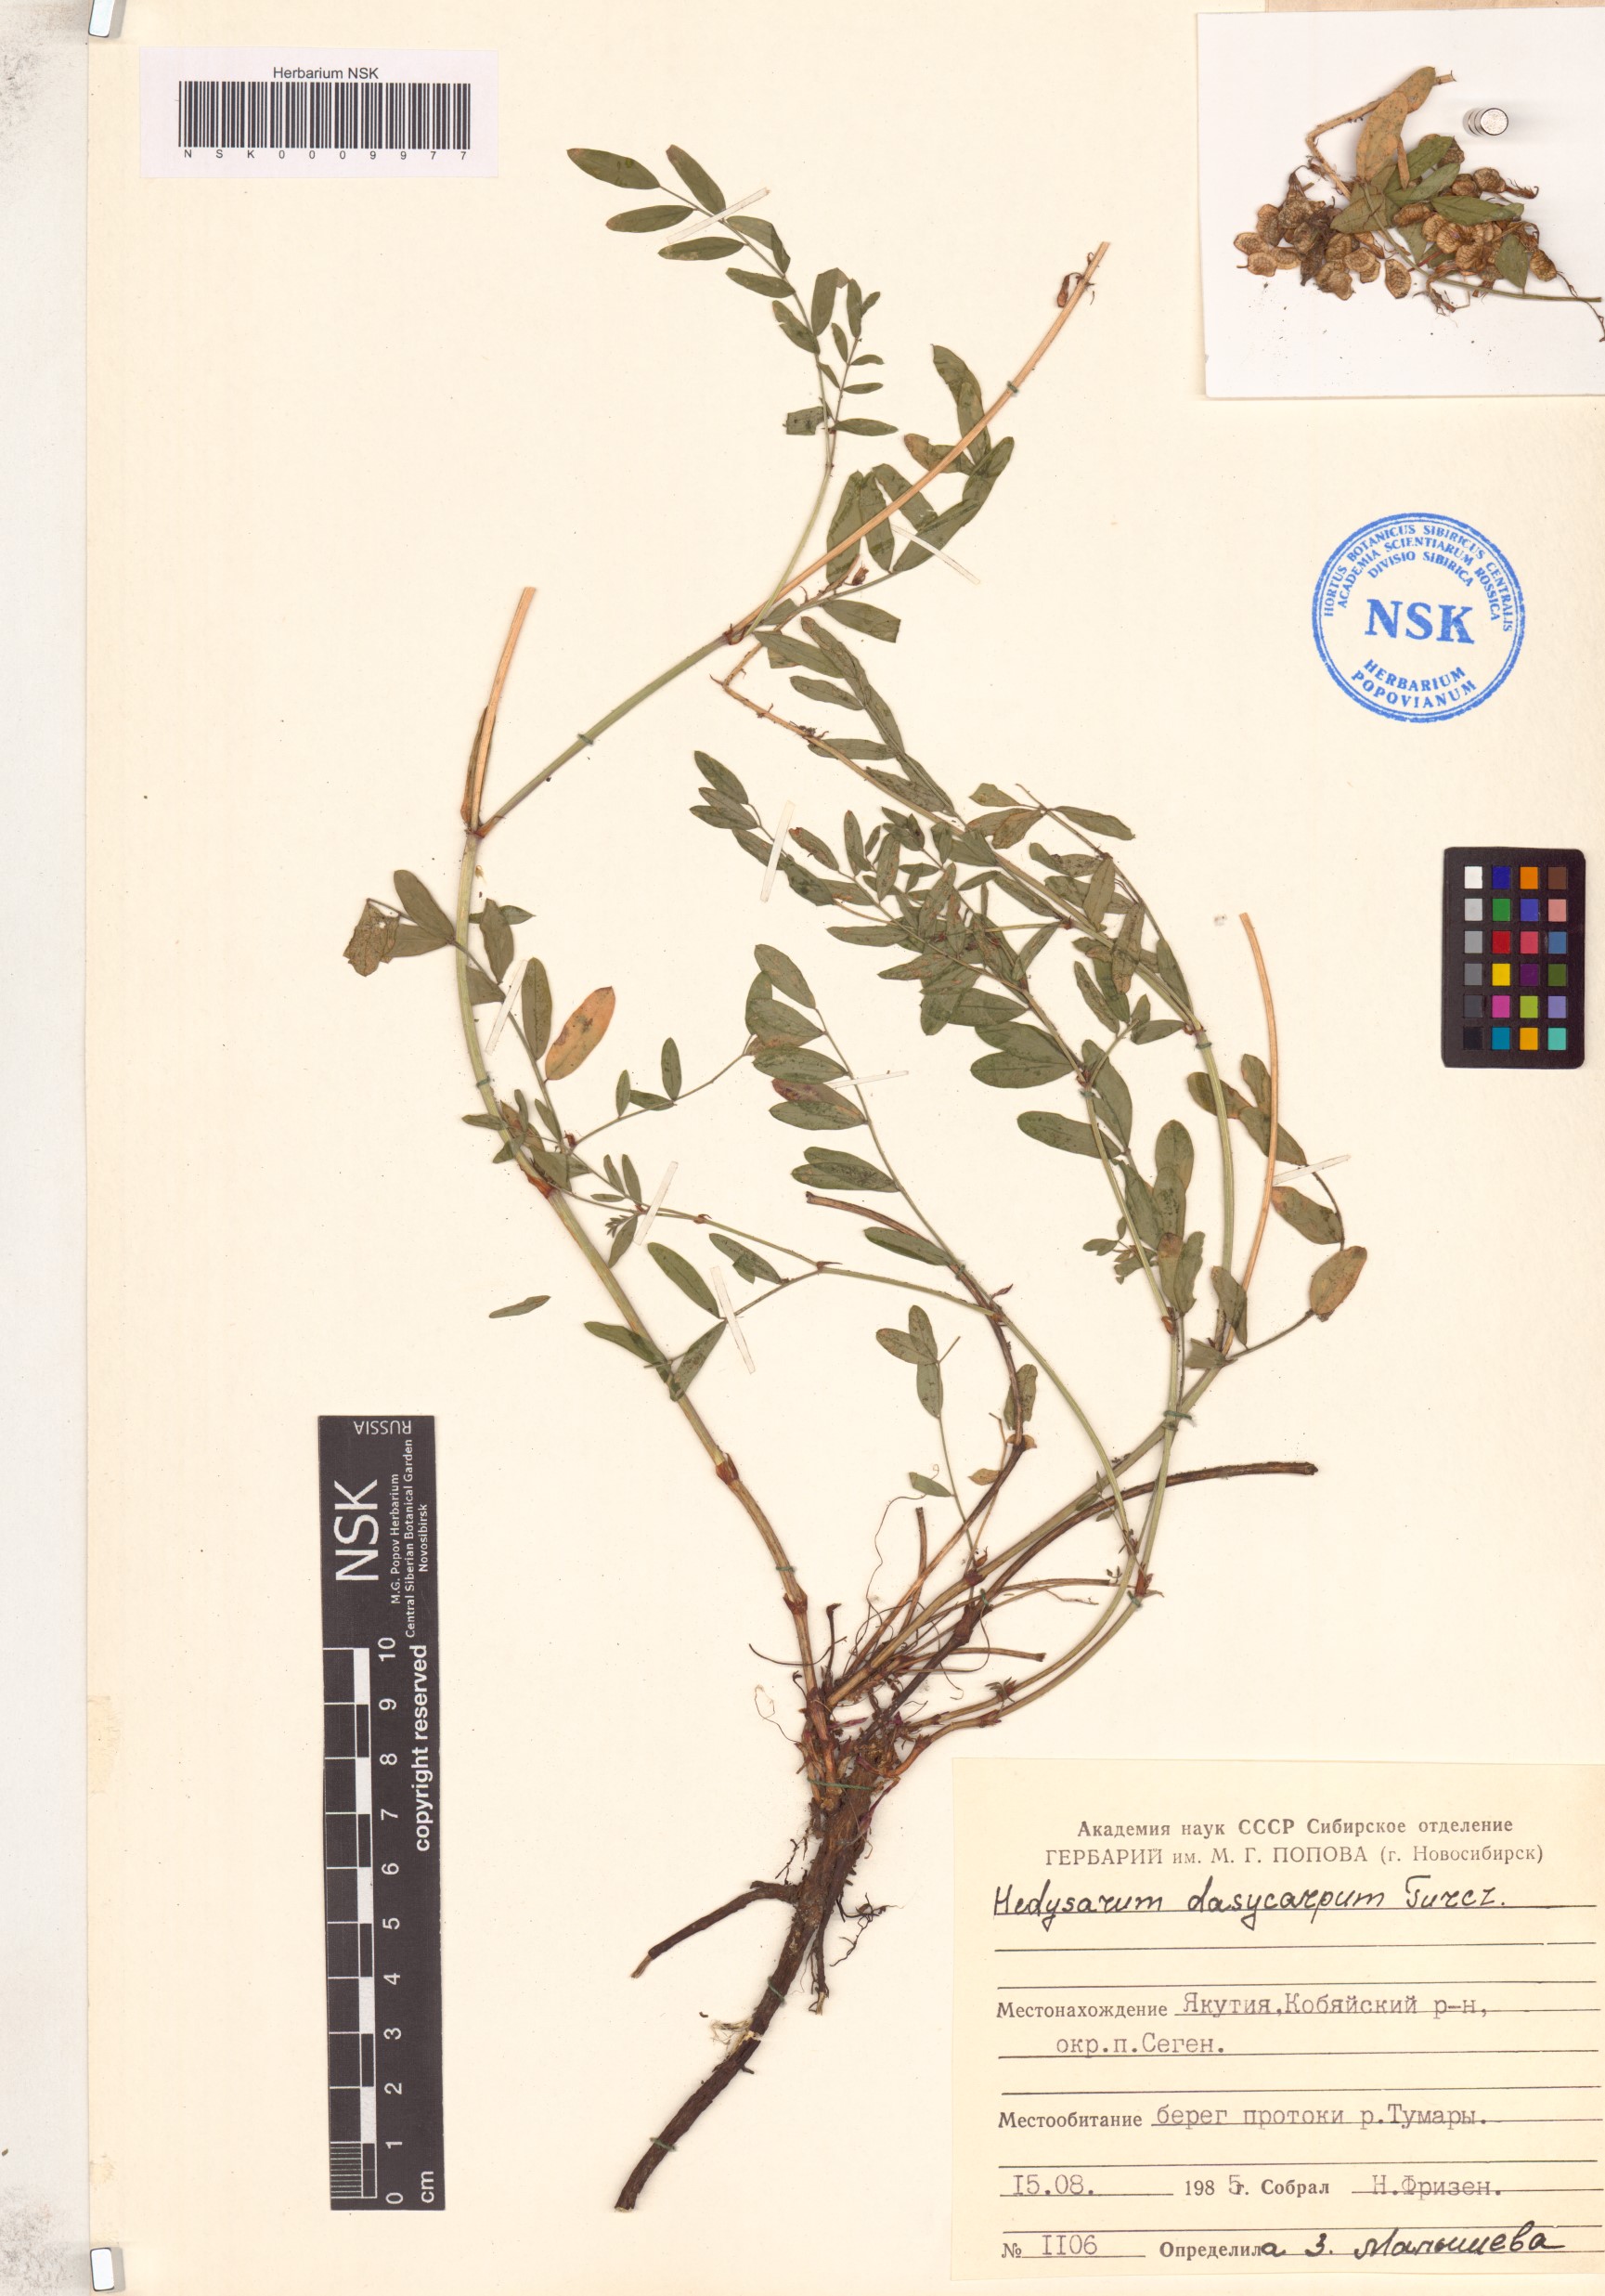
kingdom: Plantae
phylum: Tracheophyta
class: Magnoliopsida
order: Fabales
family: Fabaceae
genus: Hedysarum
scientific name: Hedysarum dasycarpum
